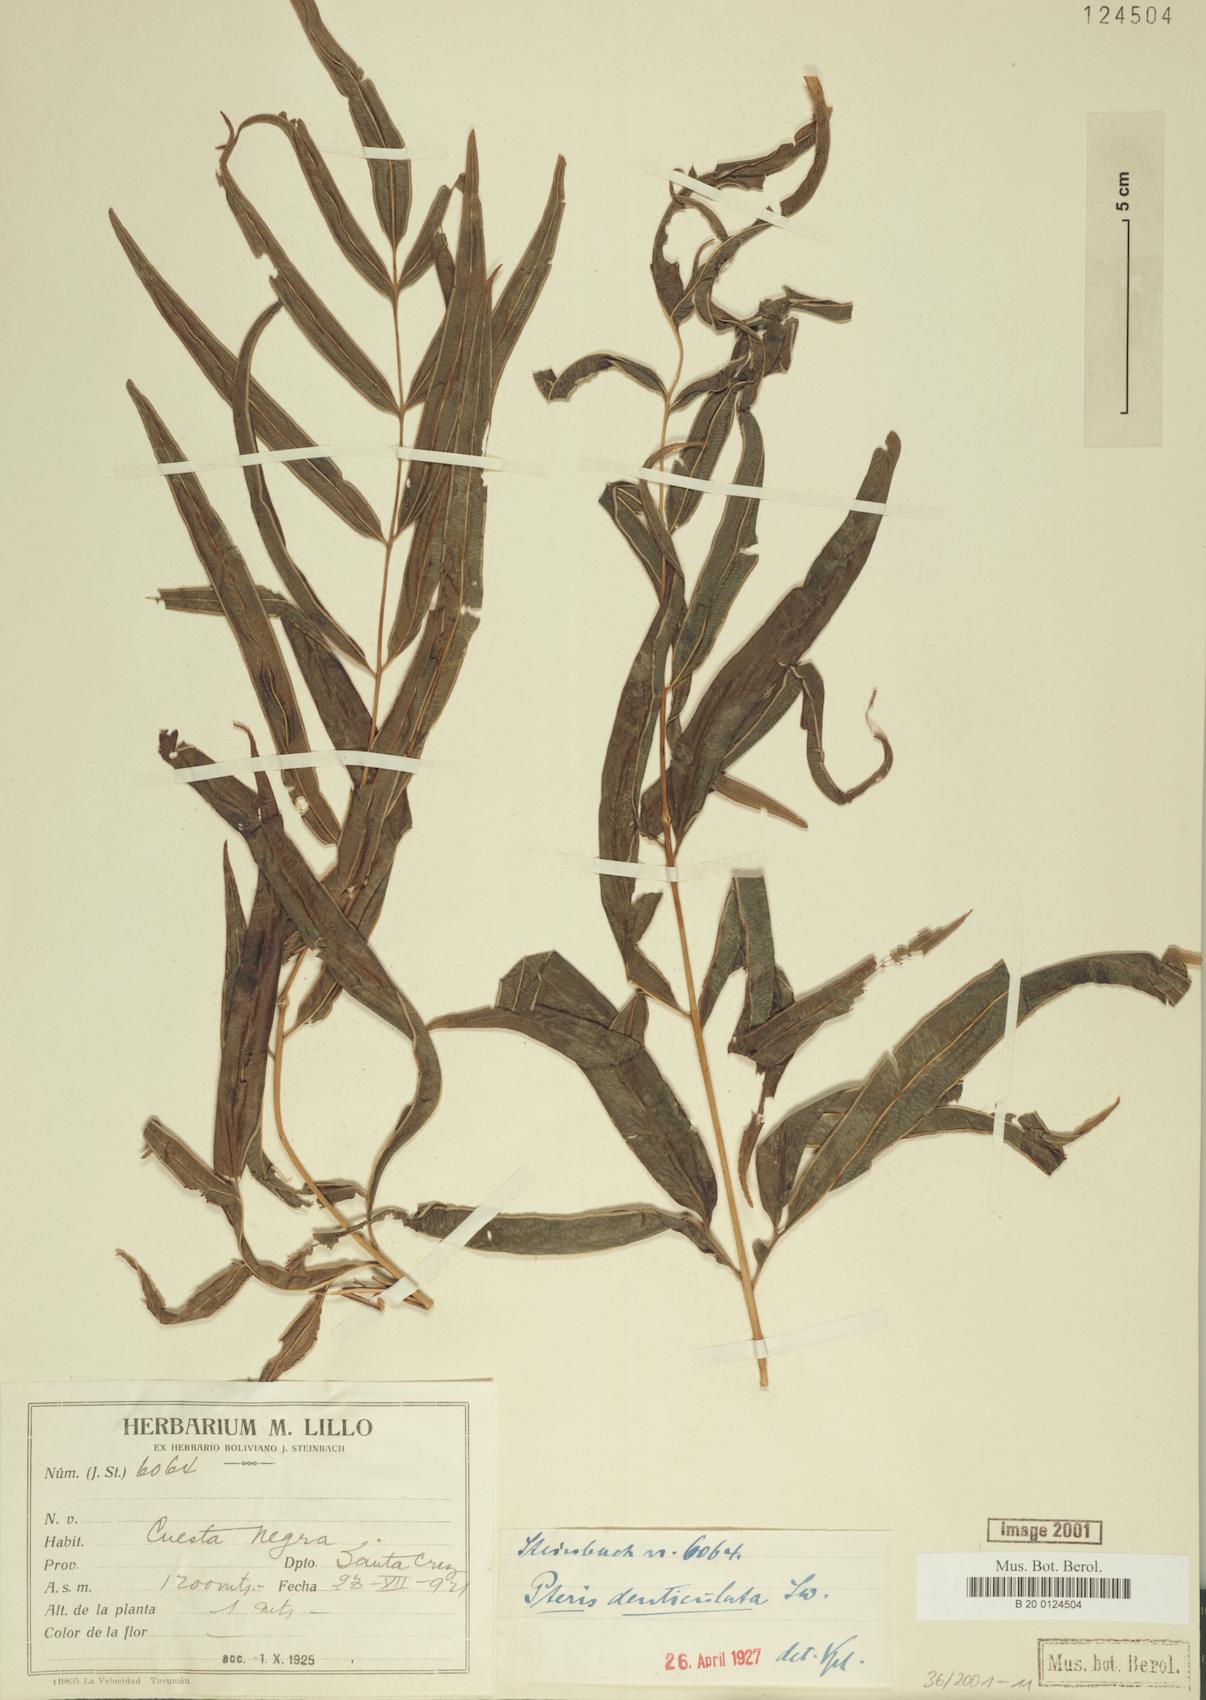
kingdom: Plantae
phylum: Tracheophyta
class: Polypodiopsida
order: Polypodiales
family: Pteridaceae
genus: Pteris
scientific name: Pteris denticulata
